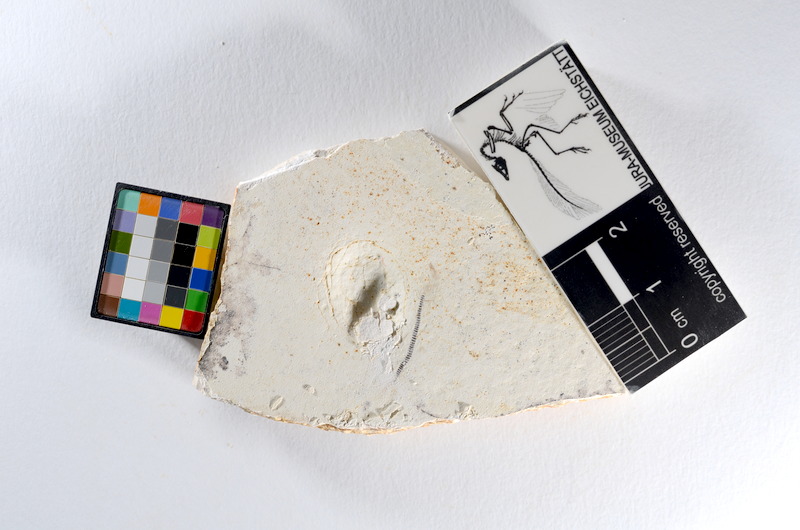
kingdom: Animalia
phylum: Chordata
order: Salmoniformes
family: Orthogonikleithridae
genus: Orthogonikleithrus
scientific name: Orthogonikleithrus hoelli
